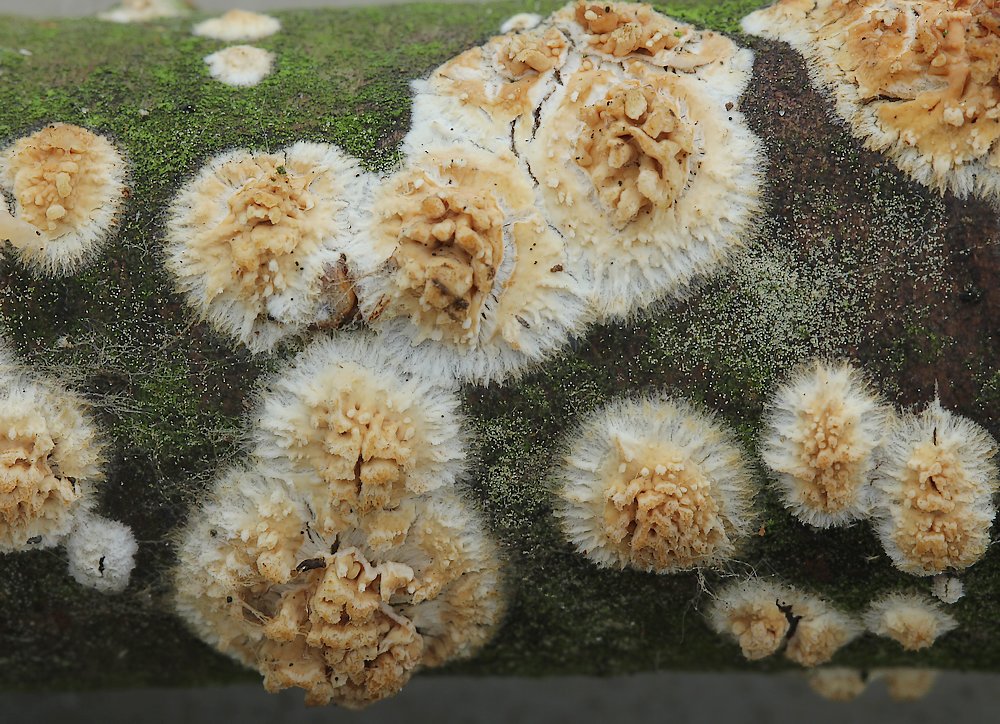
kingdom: Fungi
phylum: Basidiomycota
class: Agaricomycetes
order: Hymenochaetales
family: Schizoporaceae
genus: Xylodon
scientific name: Xylodon radula
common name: grovtandet kalkskind
